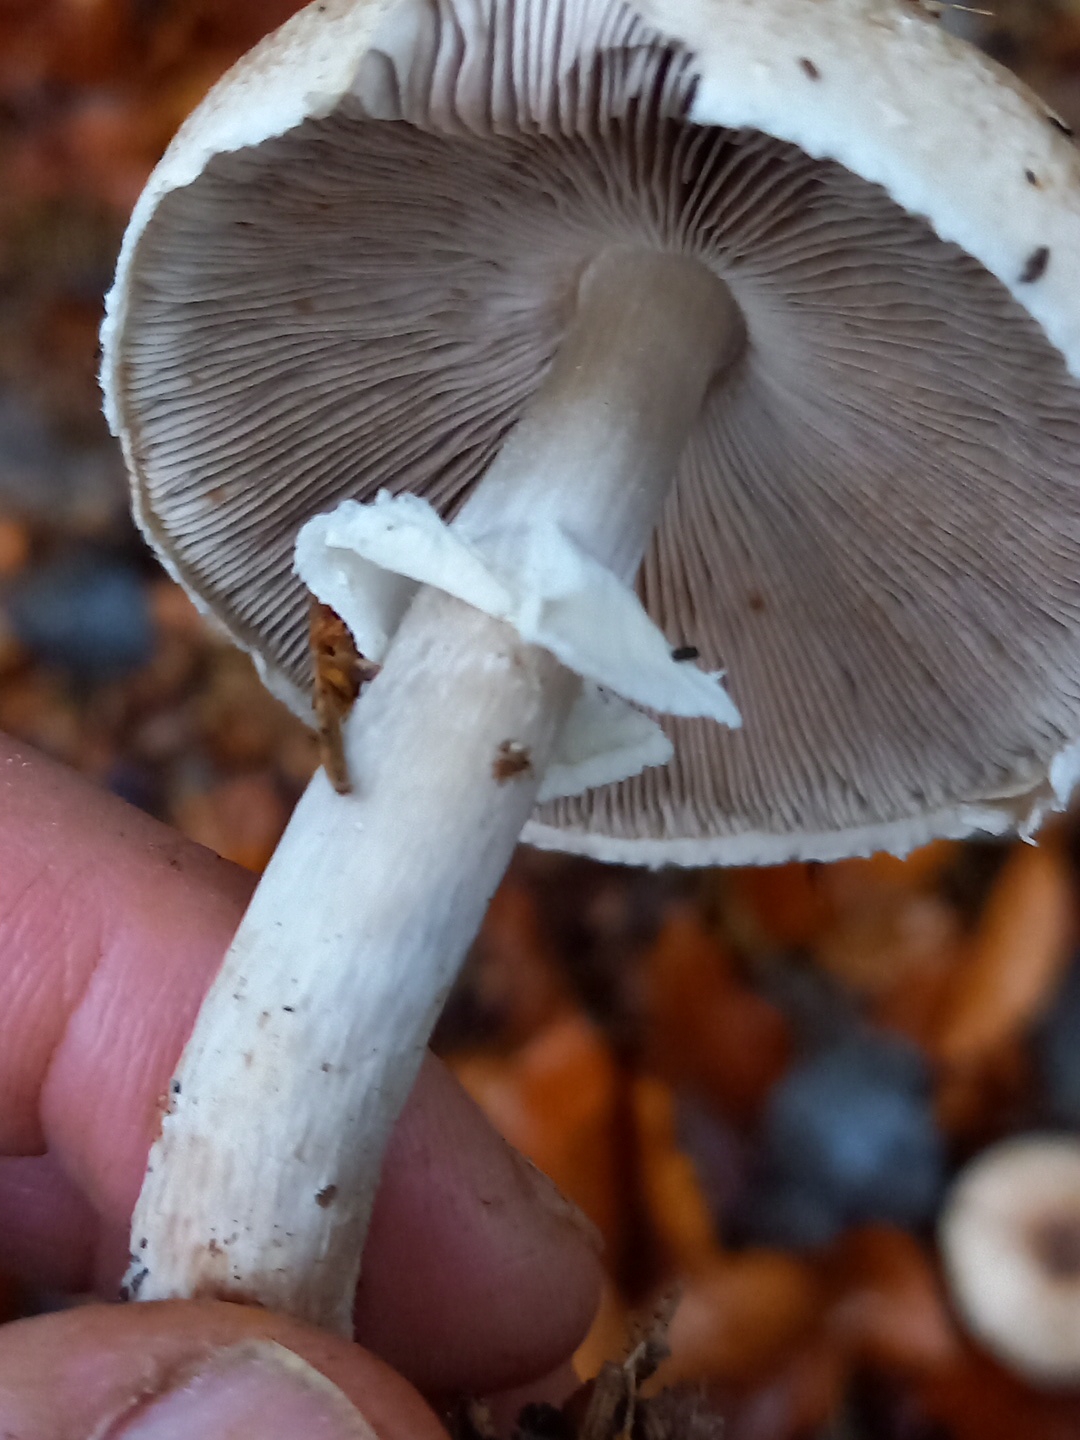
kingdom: Fungi
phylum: Basidiomycota
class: Agaricomycetes
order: Agaricales
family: Agaricaceae
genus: Agaricus
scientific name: Agaricus impudicus
